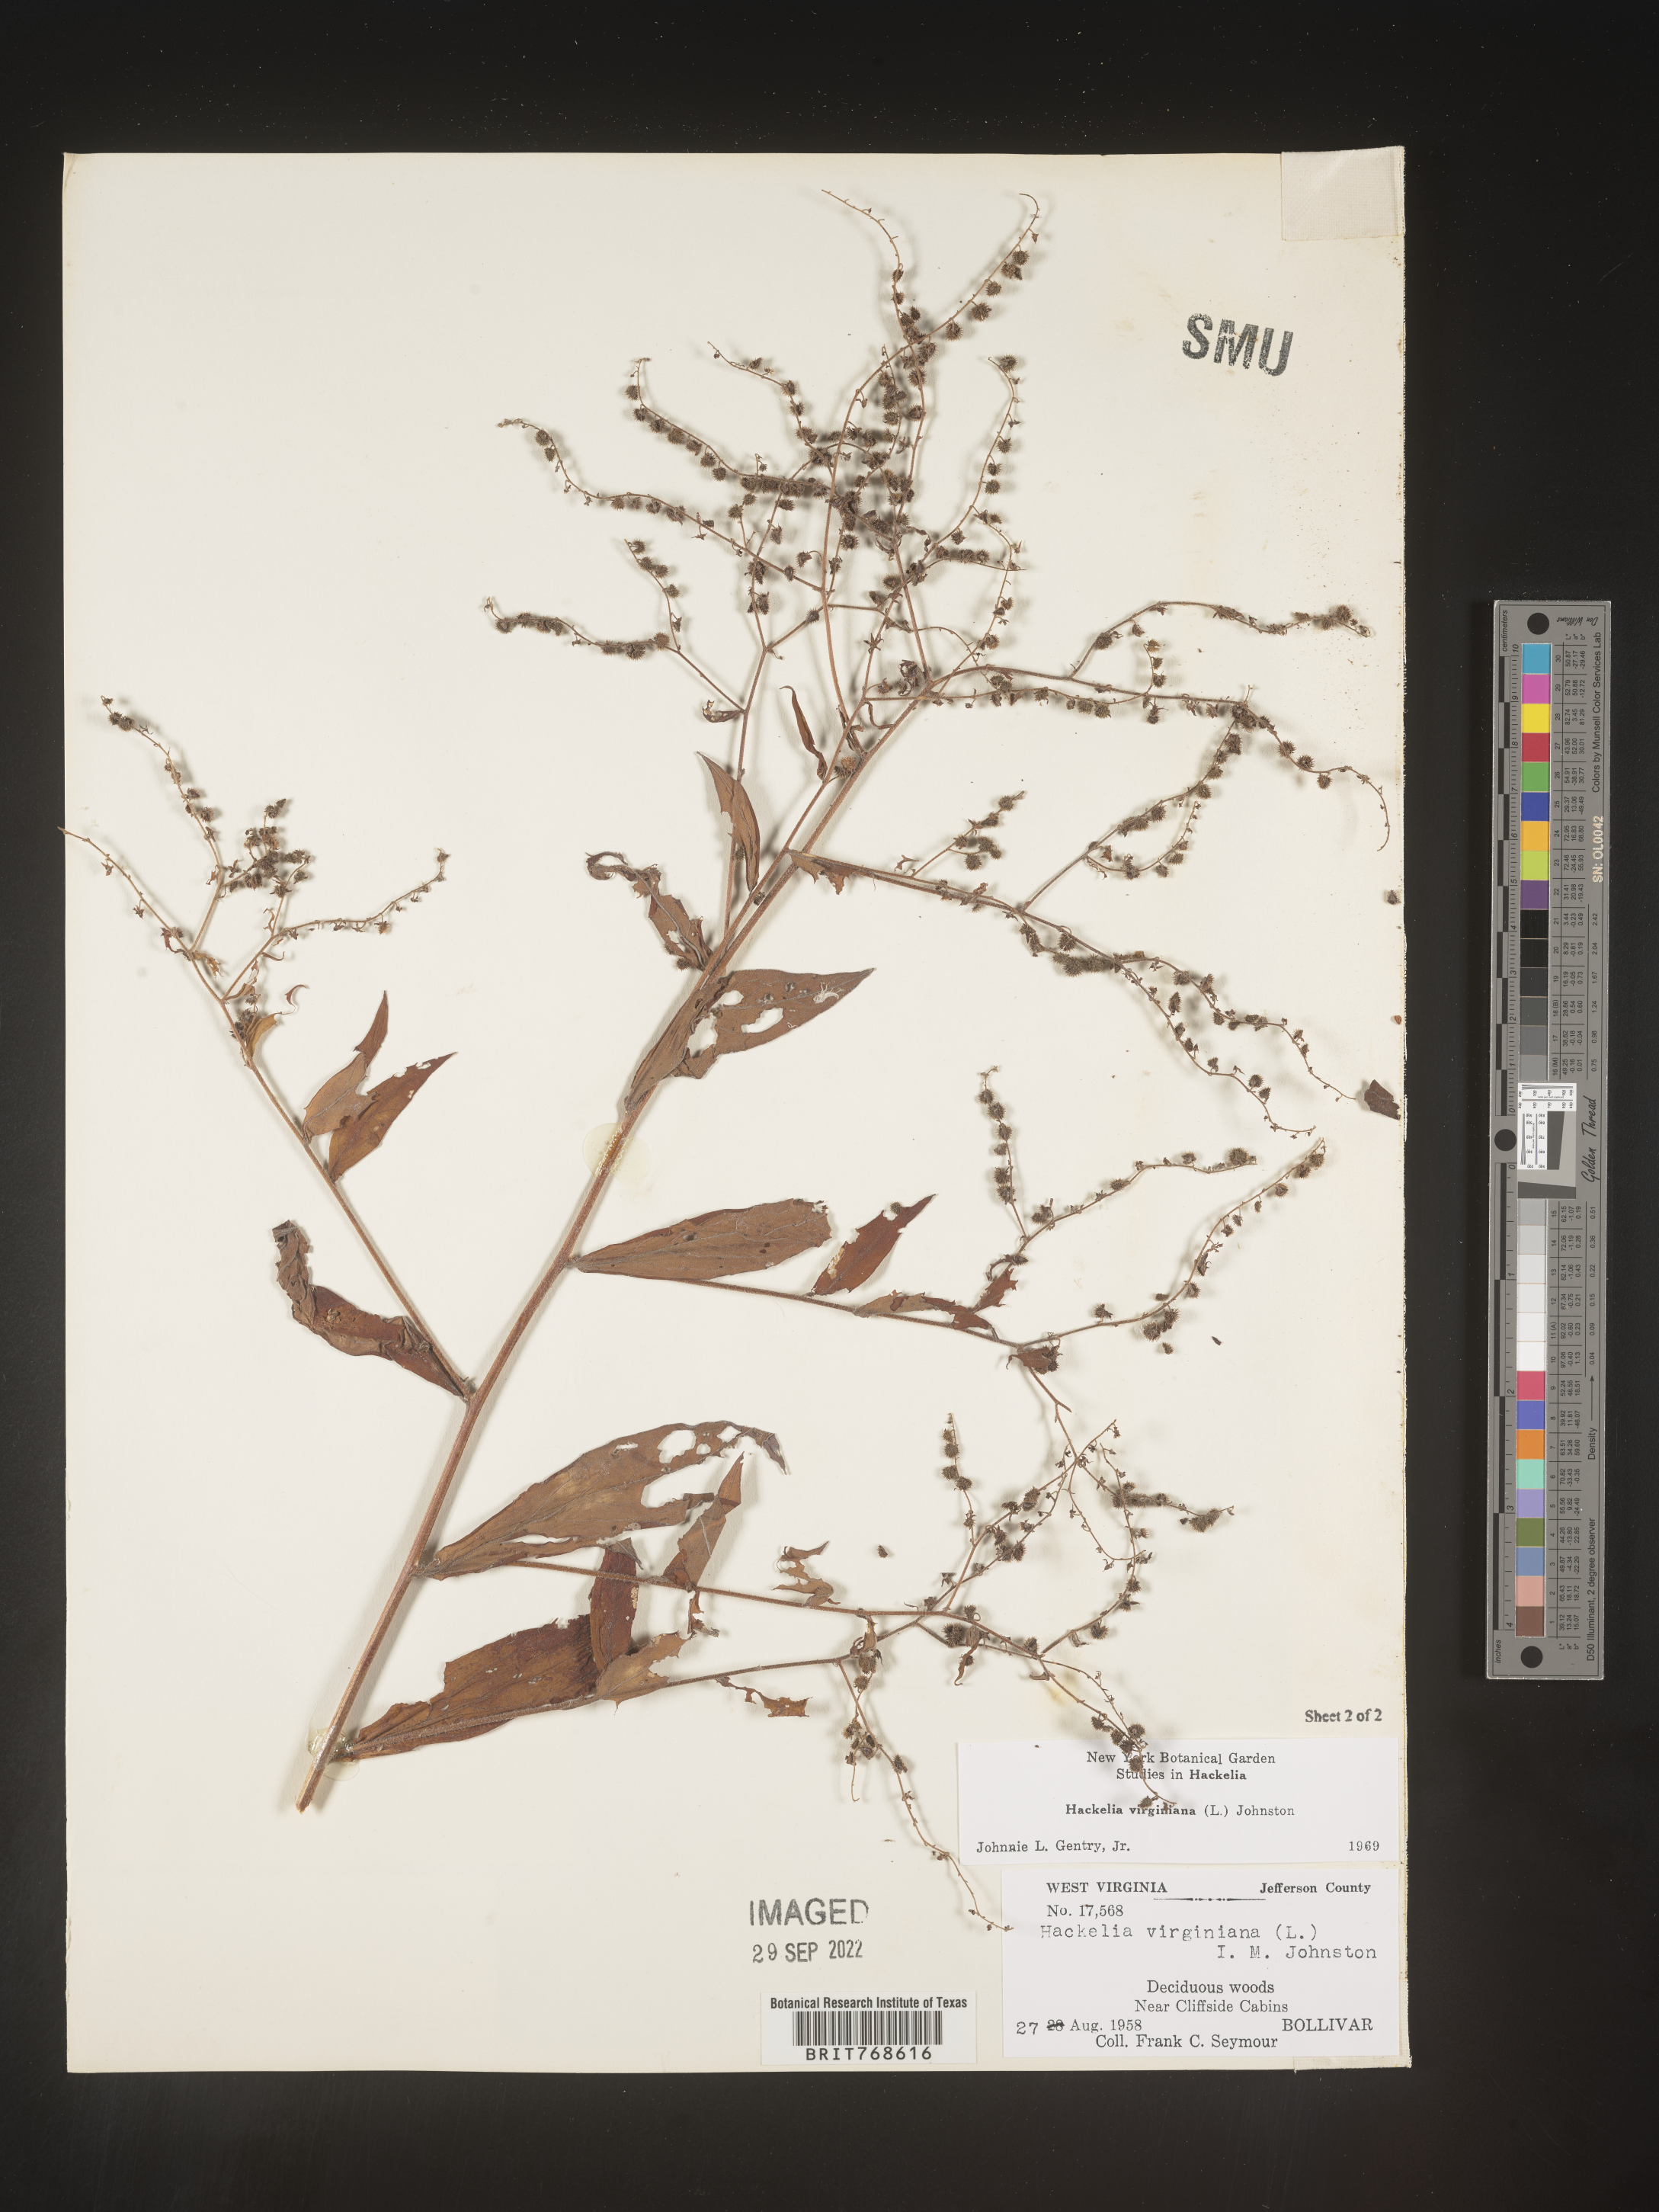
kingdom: Plantae
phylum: Tracheophyta
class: Magnoliopsida
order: Boraginales
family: Boraginaceae
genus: Hackelia
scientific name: Hackelia virginiana
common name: Beggar's-lice
